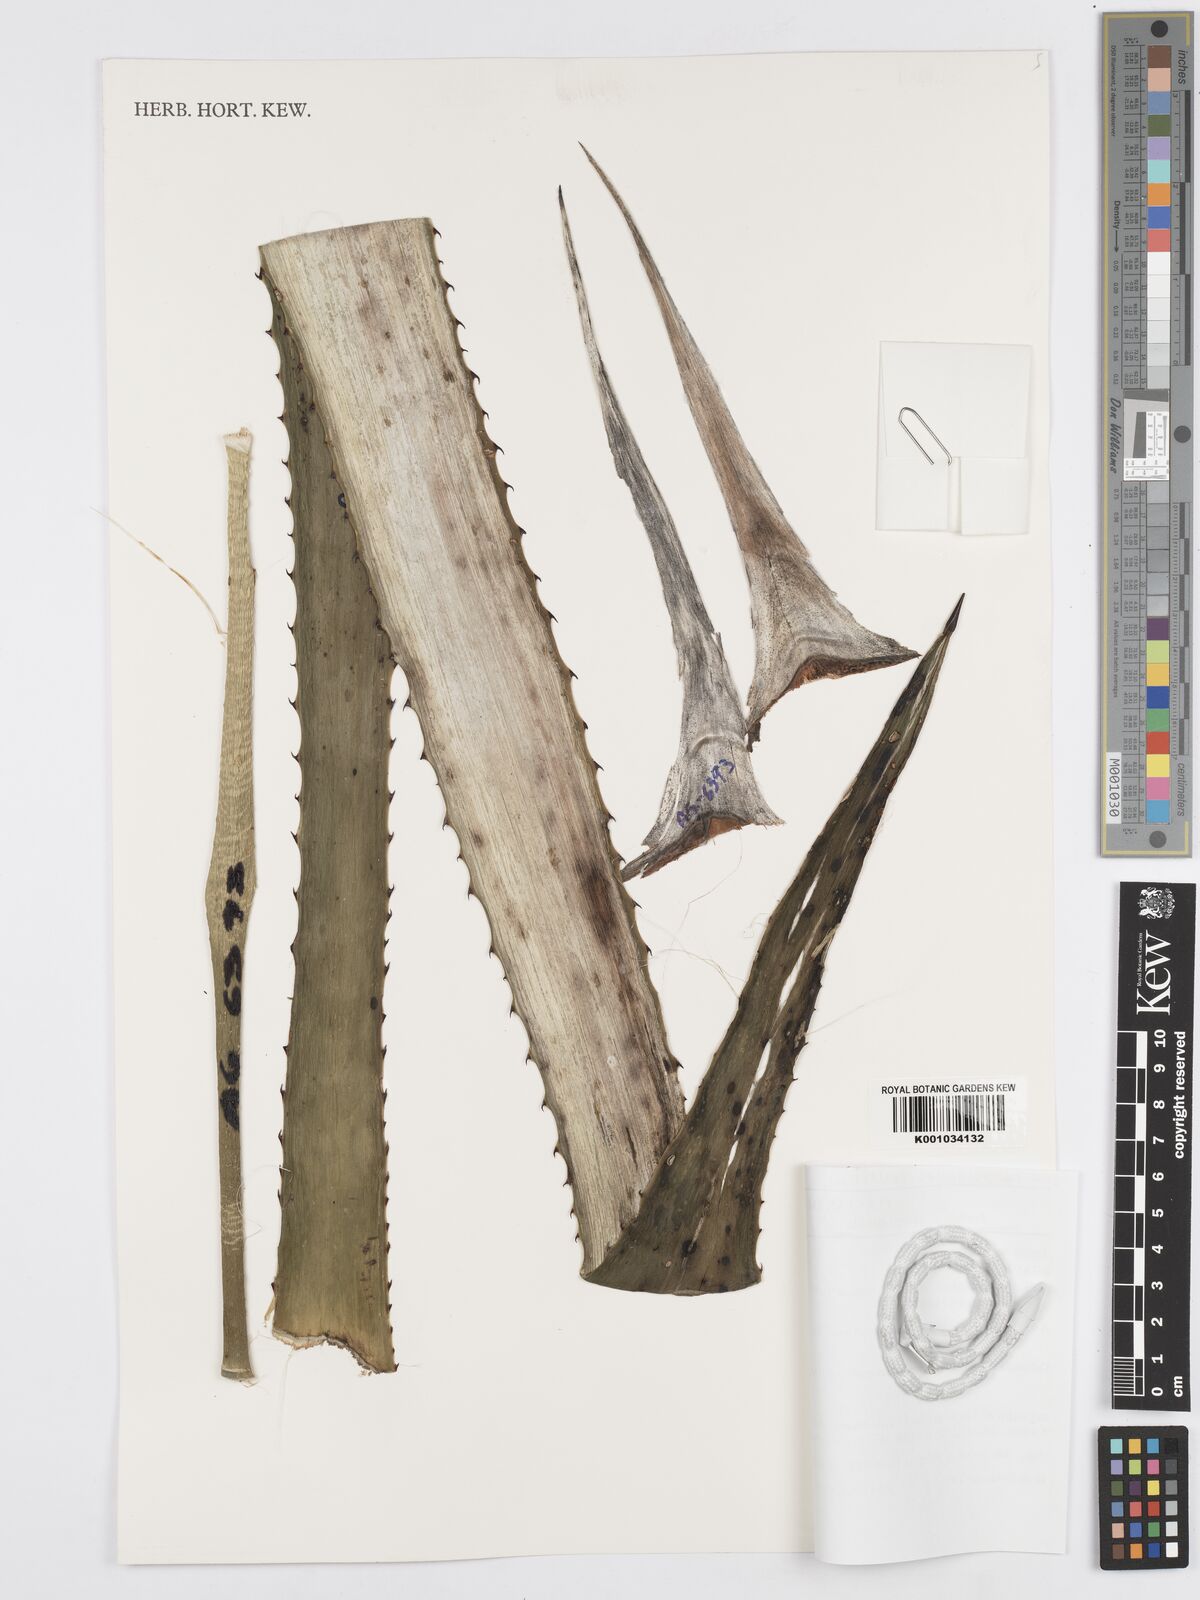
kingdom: Plantae
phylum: Tracheophyta
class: Liliopsida
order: Asparagales
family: Asparagaceae
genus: Agave
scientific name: Agave tequilana
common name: Tequila agave
